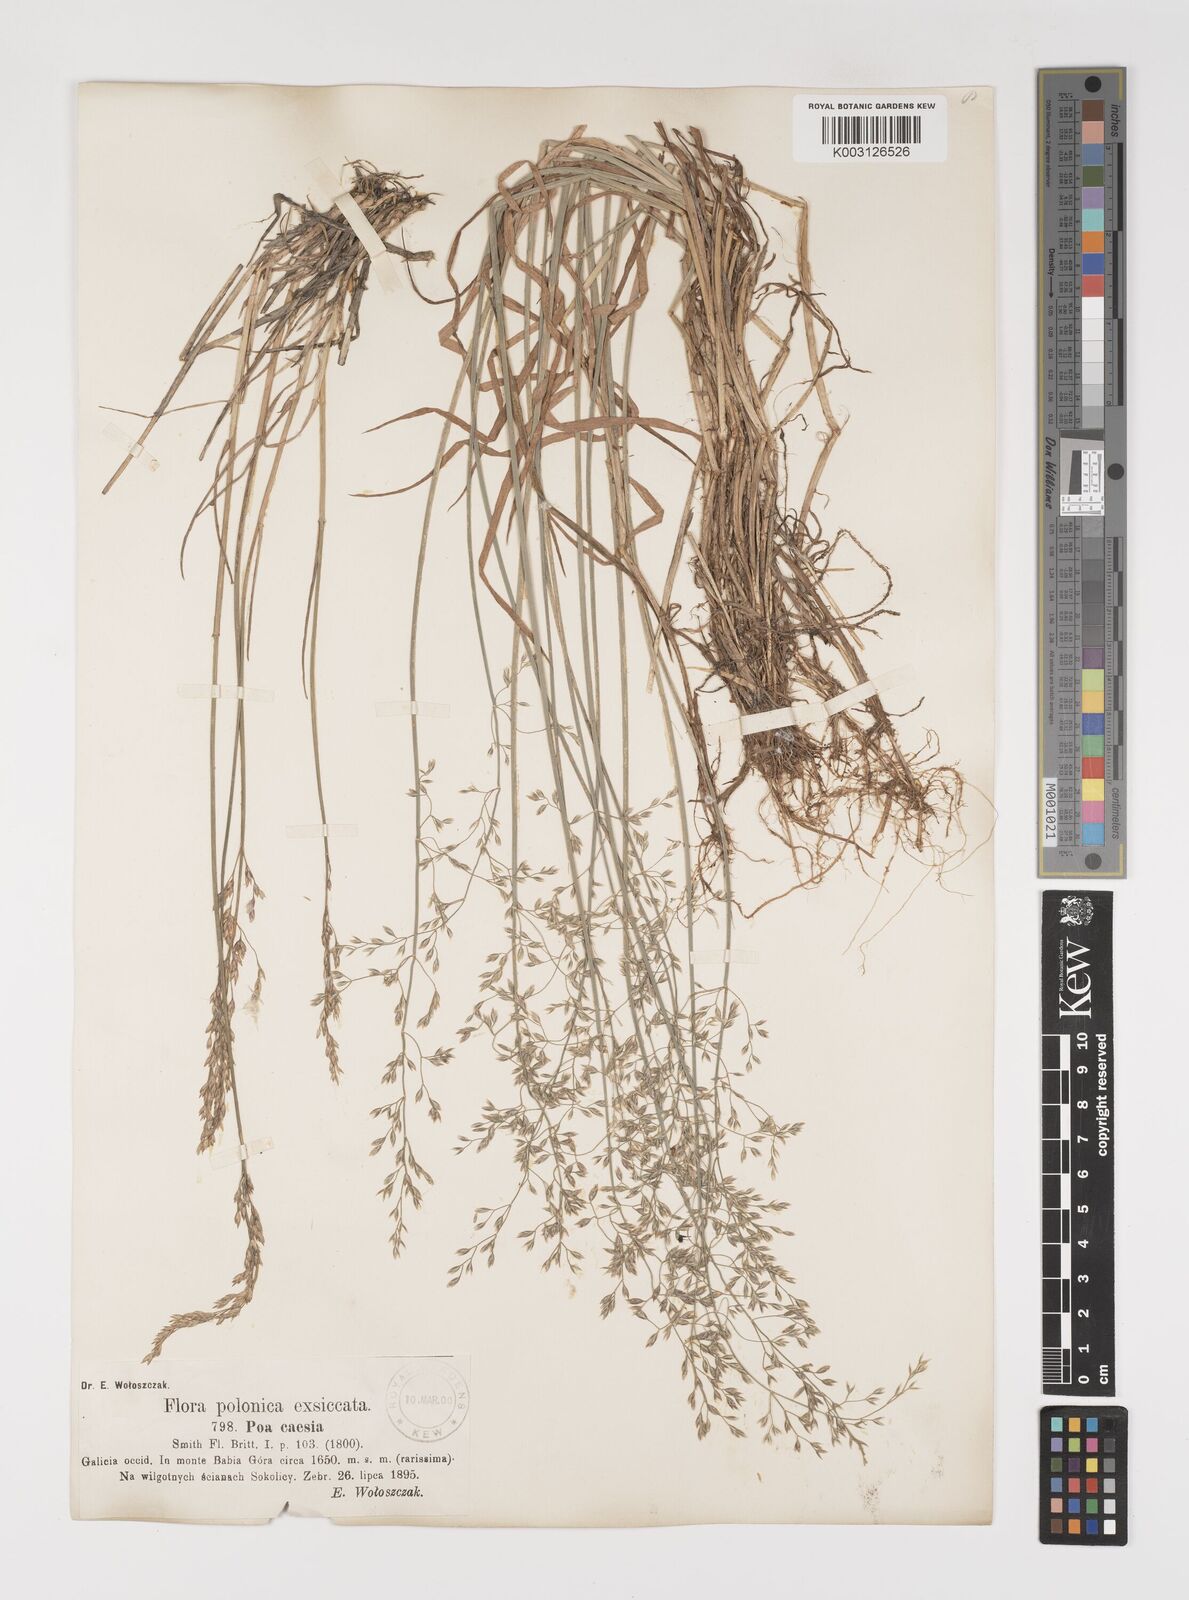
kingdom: Plantae
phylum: Tracheophyta
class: Liliopsida
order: Poales
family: Poaceae
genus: Poa
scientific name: Poa nemoralis
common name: Wood bluegrass
